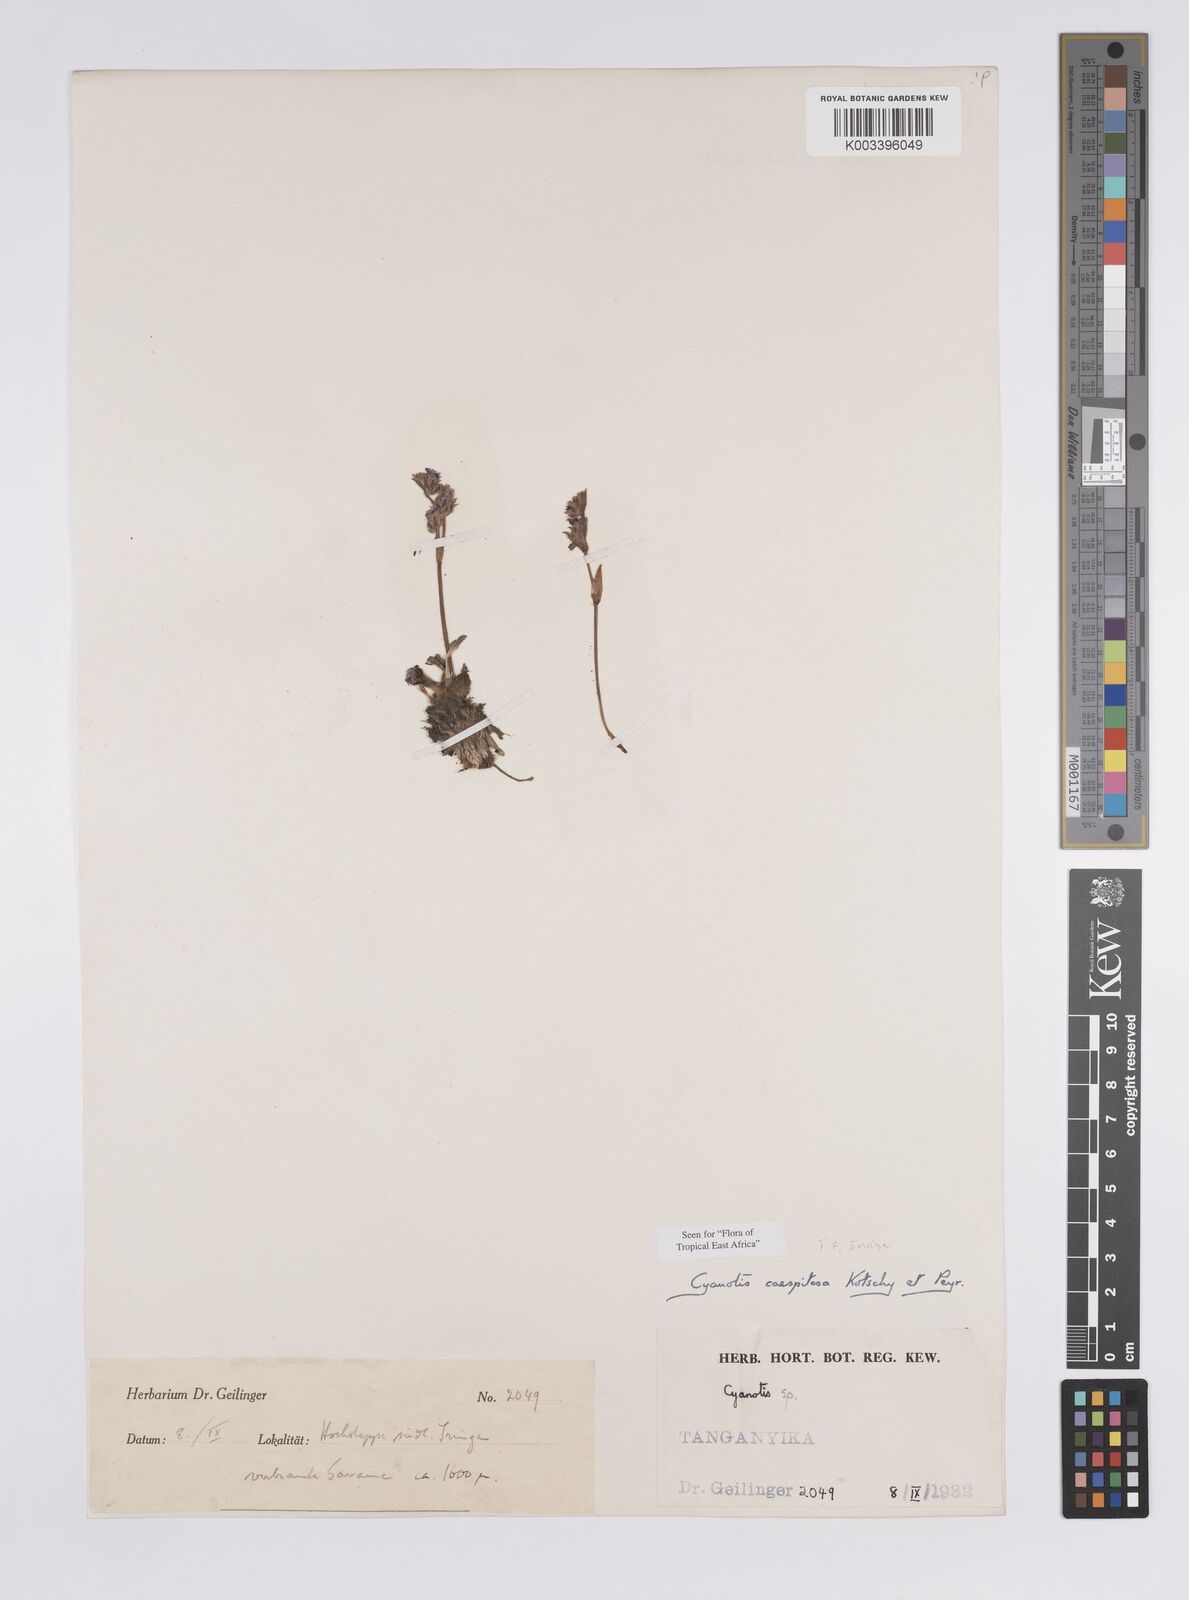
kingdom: Plantae
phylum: Tracheophyta
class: Liliopsida
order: Commelinales
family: Commelinaceae
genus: Cyanotis
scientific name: Cyanotis caespitosa
